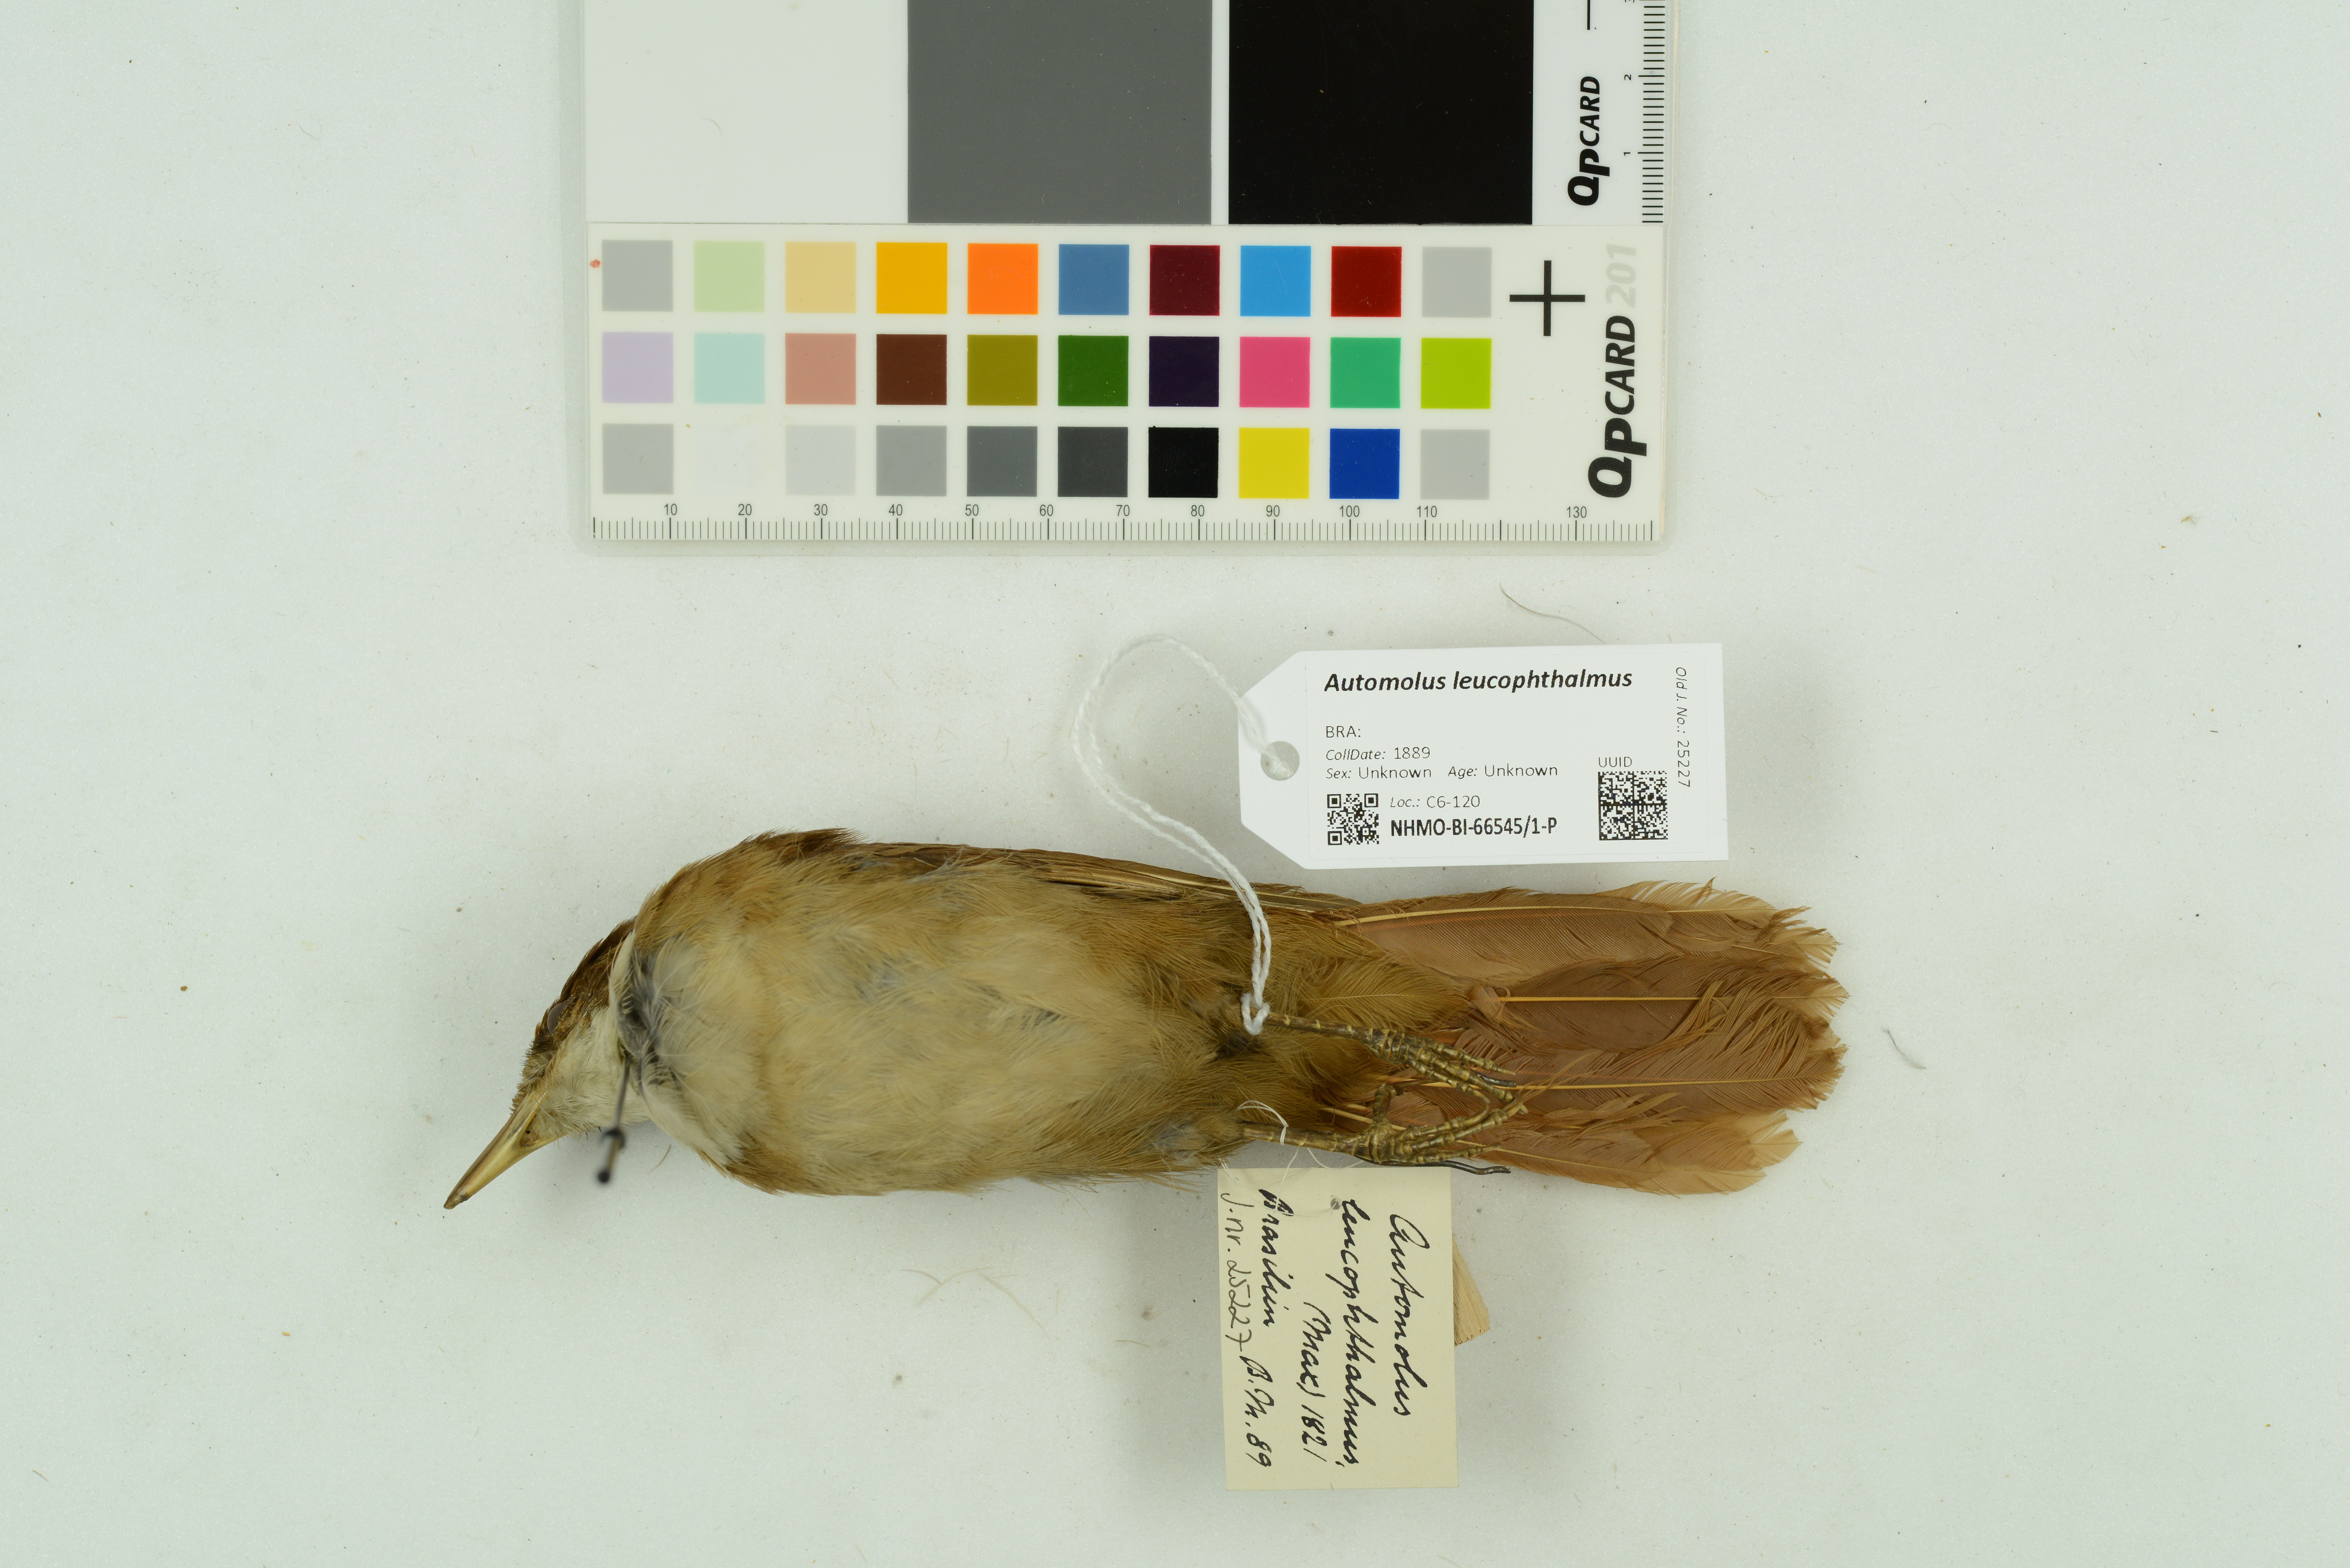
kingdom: Animalia
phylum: Chordata
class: Aves
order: Passeriformes
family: Furnariidae
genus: Automolus
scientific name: Automolus leucophthalmus
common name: White-eyed foliage-gleaner
